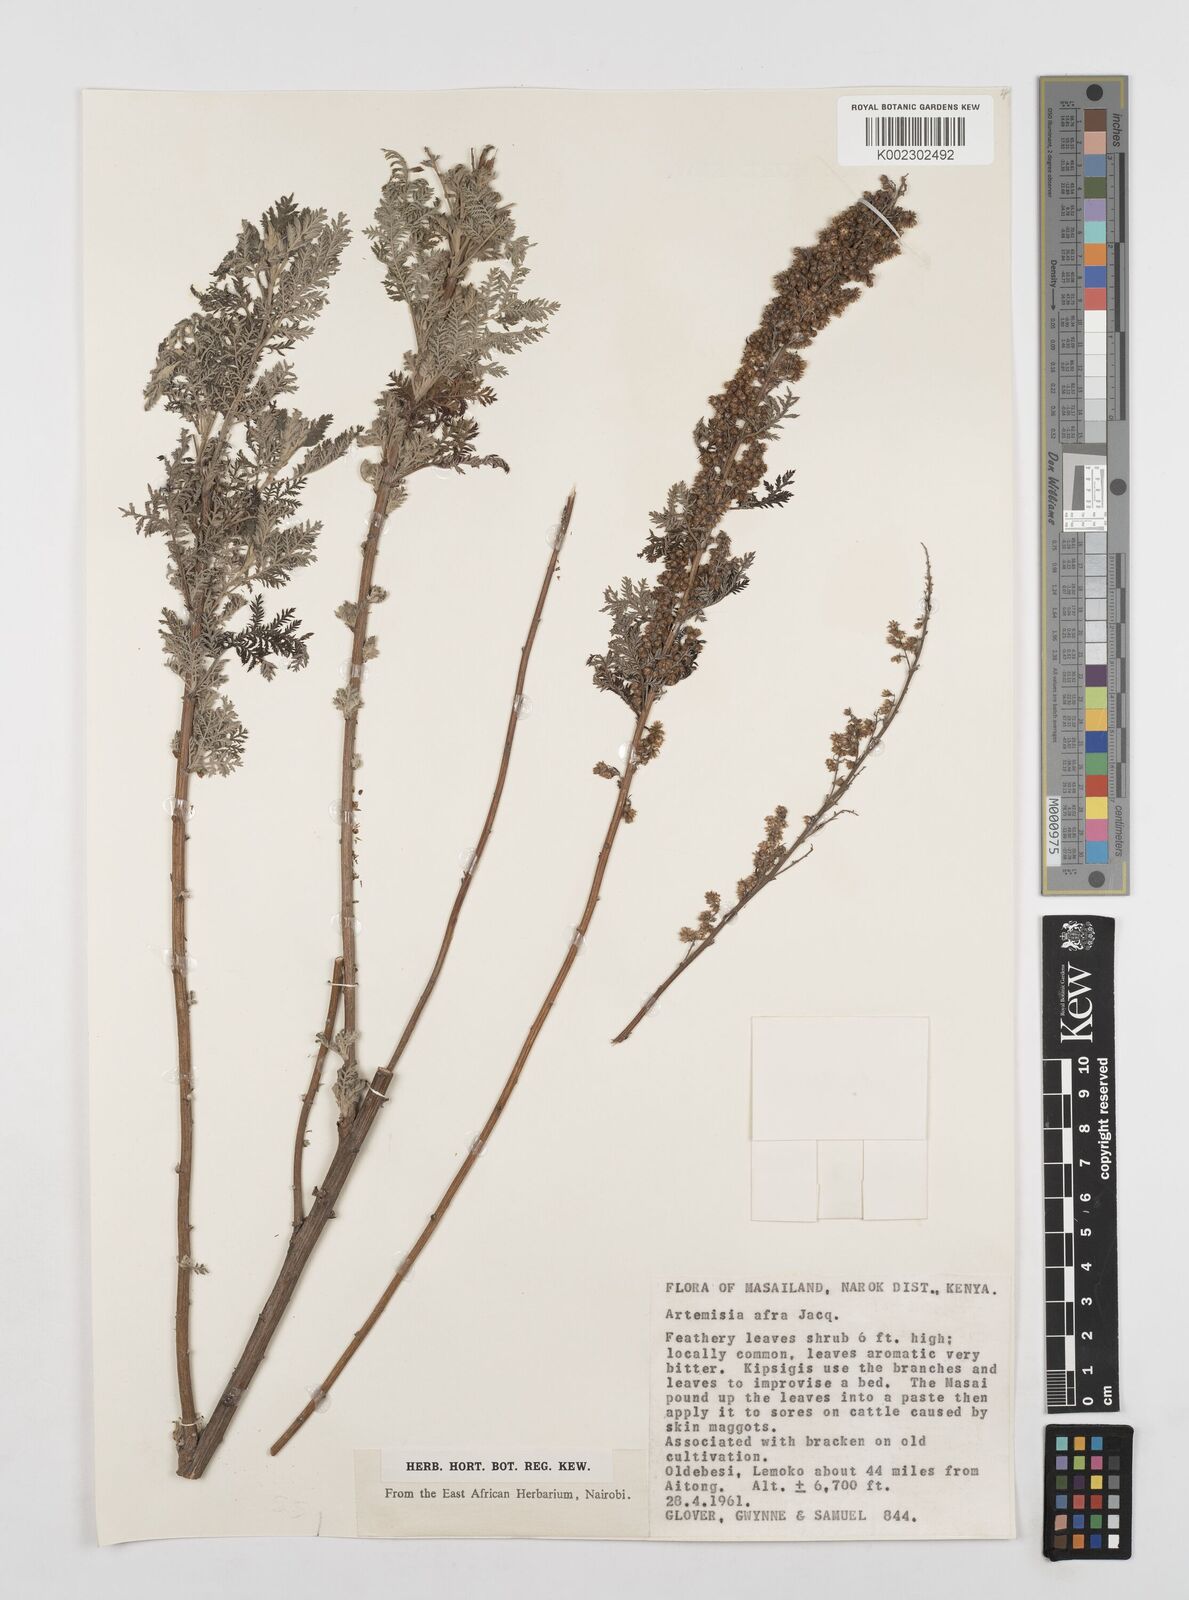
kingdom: Plantae
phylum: Tracheophyta
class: Magnoliopsida
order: Asterales
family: Asteraceae
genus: Artemisia
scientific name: Artemisia afra
